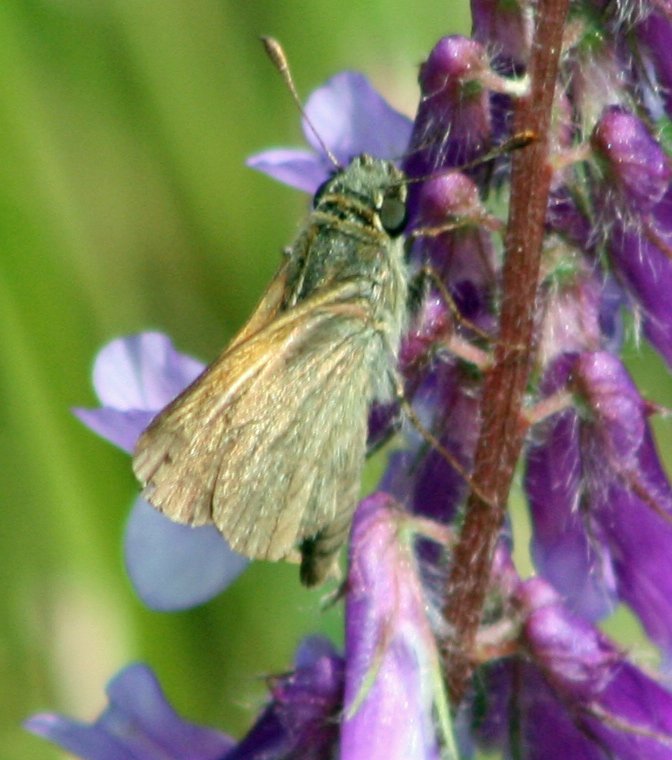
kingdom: Animalia
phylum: Arthropoda
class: Insecta
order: Lepidoptera
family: Hesperiidae
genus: Polites
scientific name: Polites themistocles
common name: Tawny-edged Skipper
